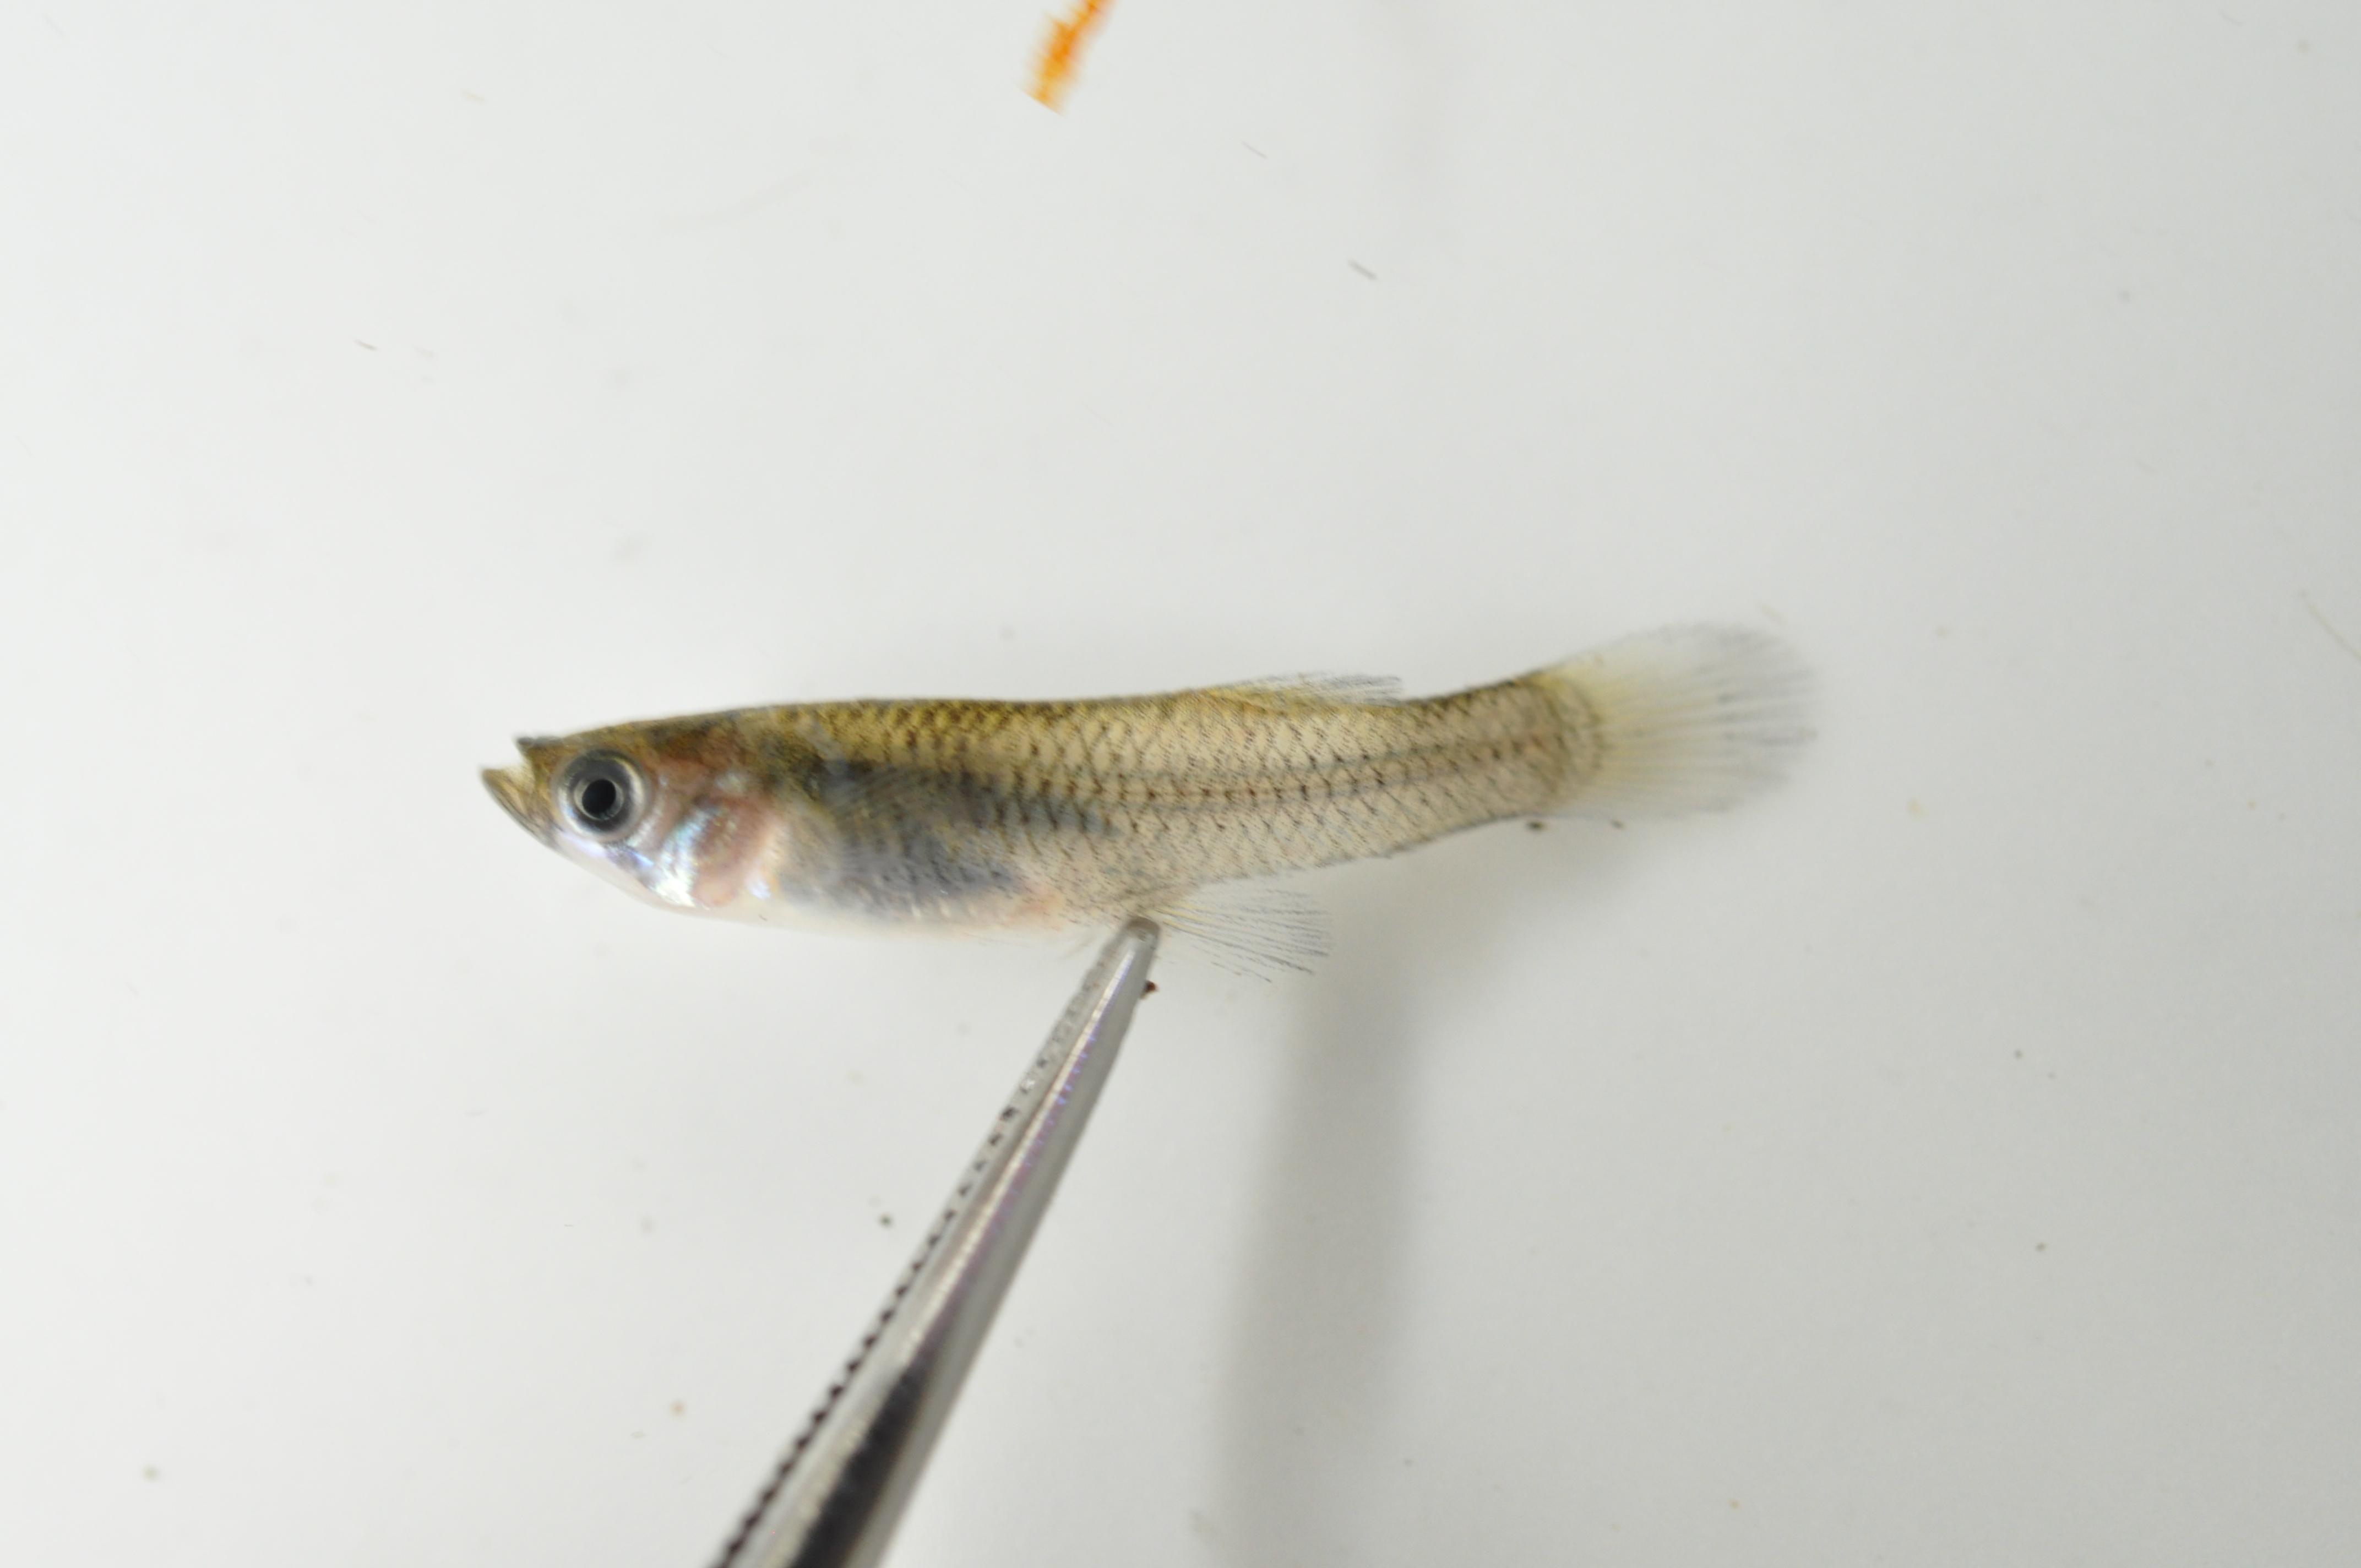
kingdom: Animalia
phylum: Chordata
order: Cyprinodontiformes
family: Poeciliidae
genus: Gambusia
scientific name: Gambusia affinis
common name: Mosquitofish
